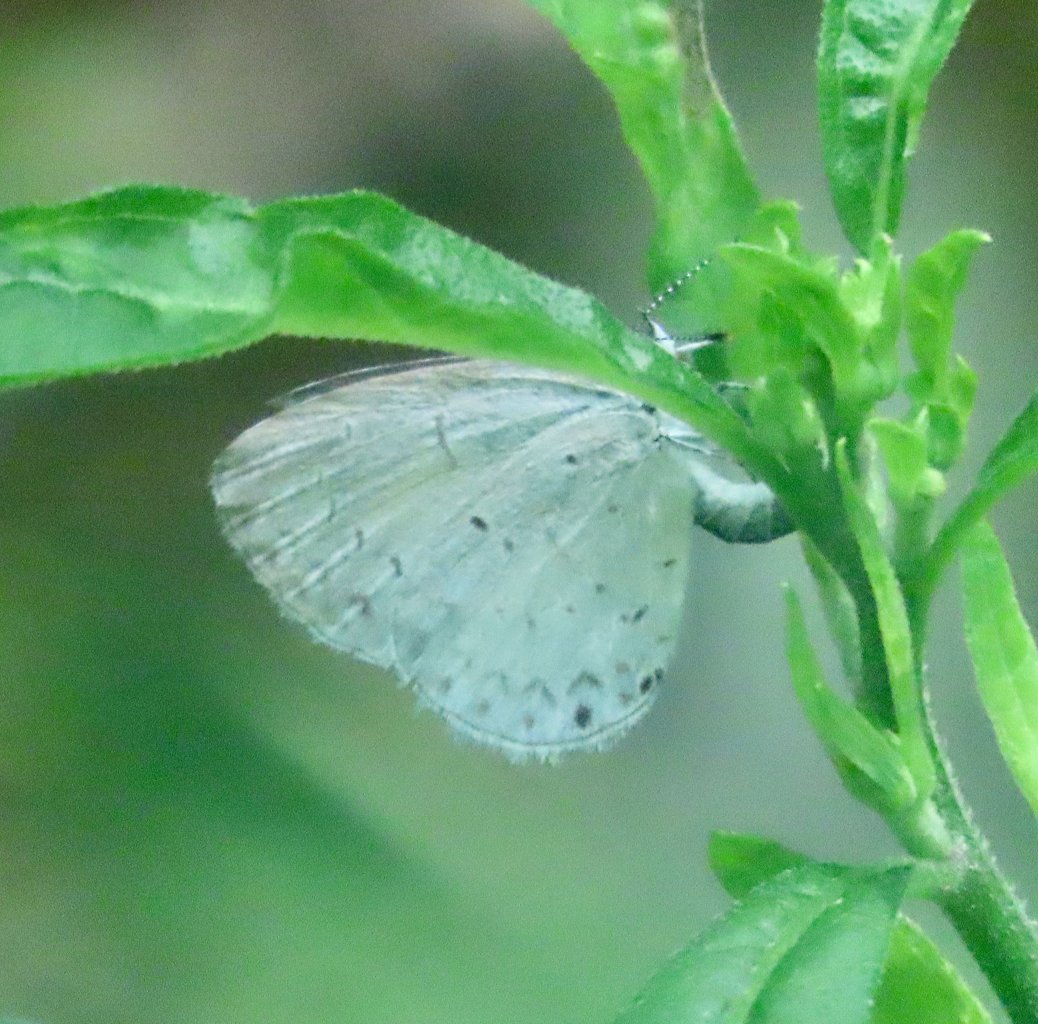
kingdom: Animalia
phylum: Arthropoda
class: Insecta
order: Lepidoptera
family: Lycaenidae
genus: Cyaniris
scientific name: Cyaniris neglecta
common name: Summer Azure
